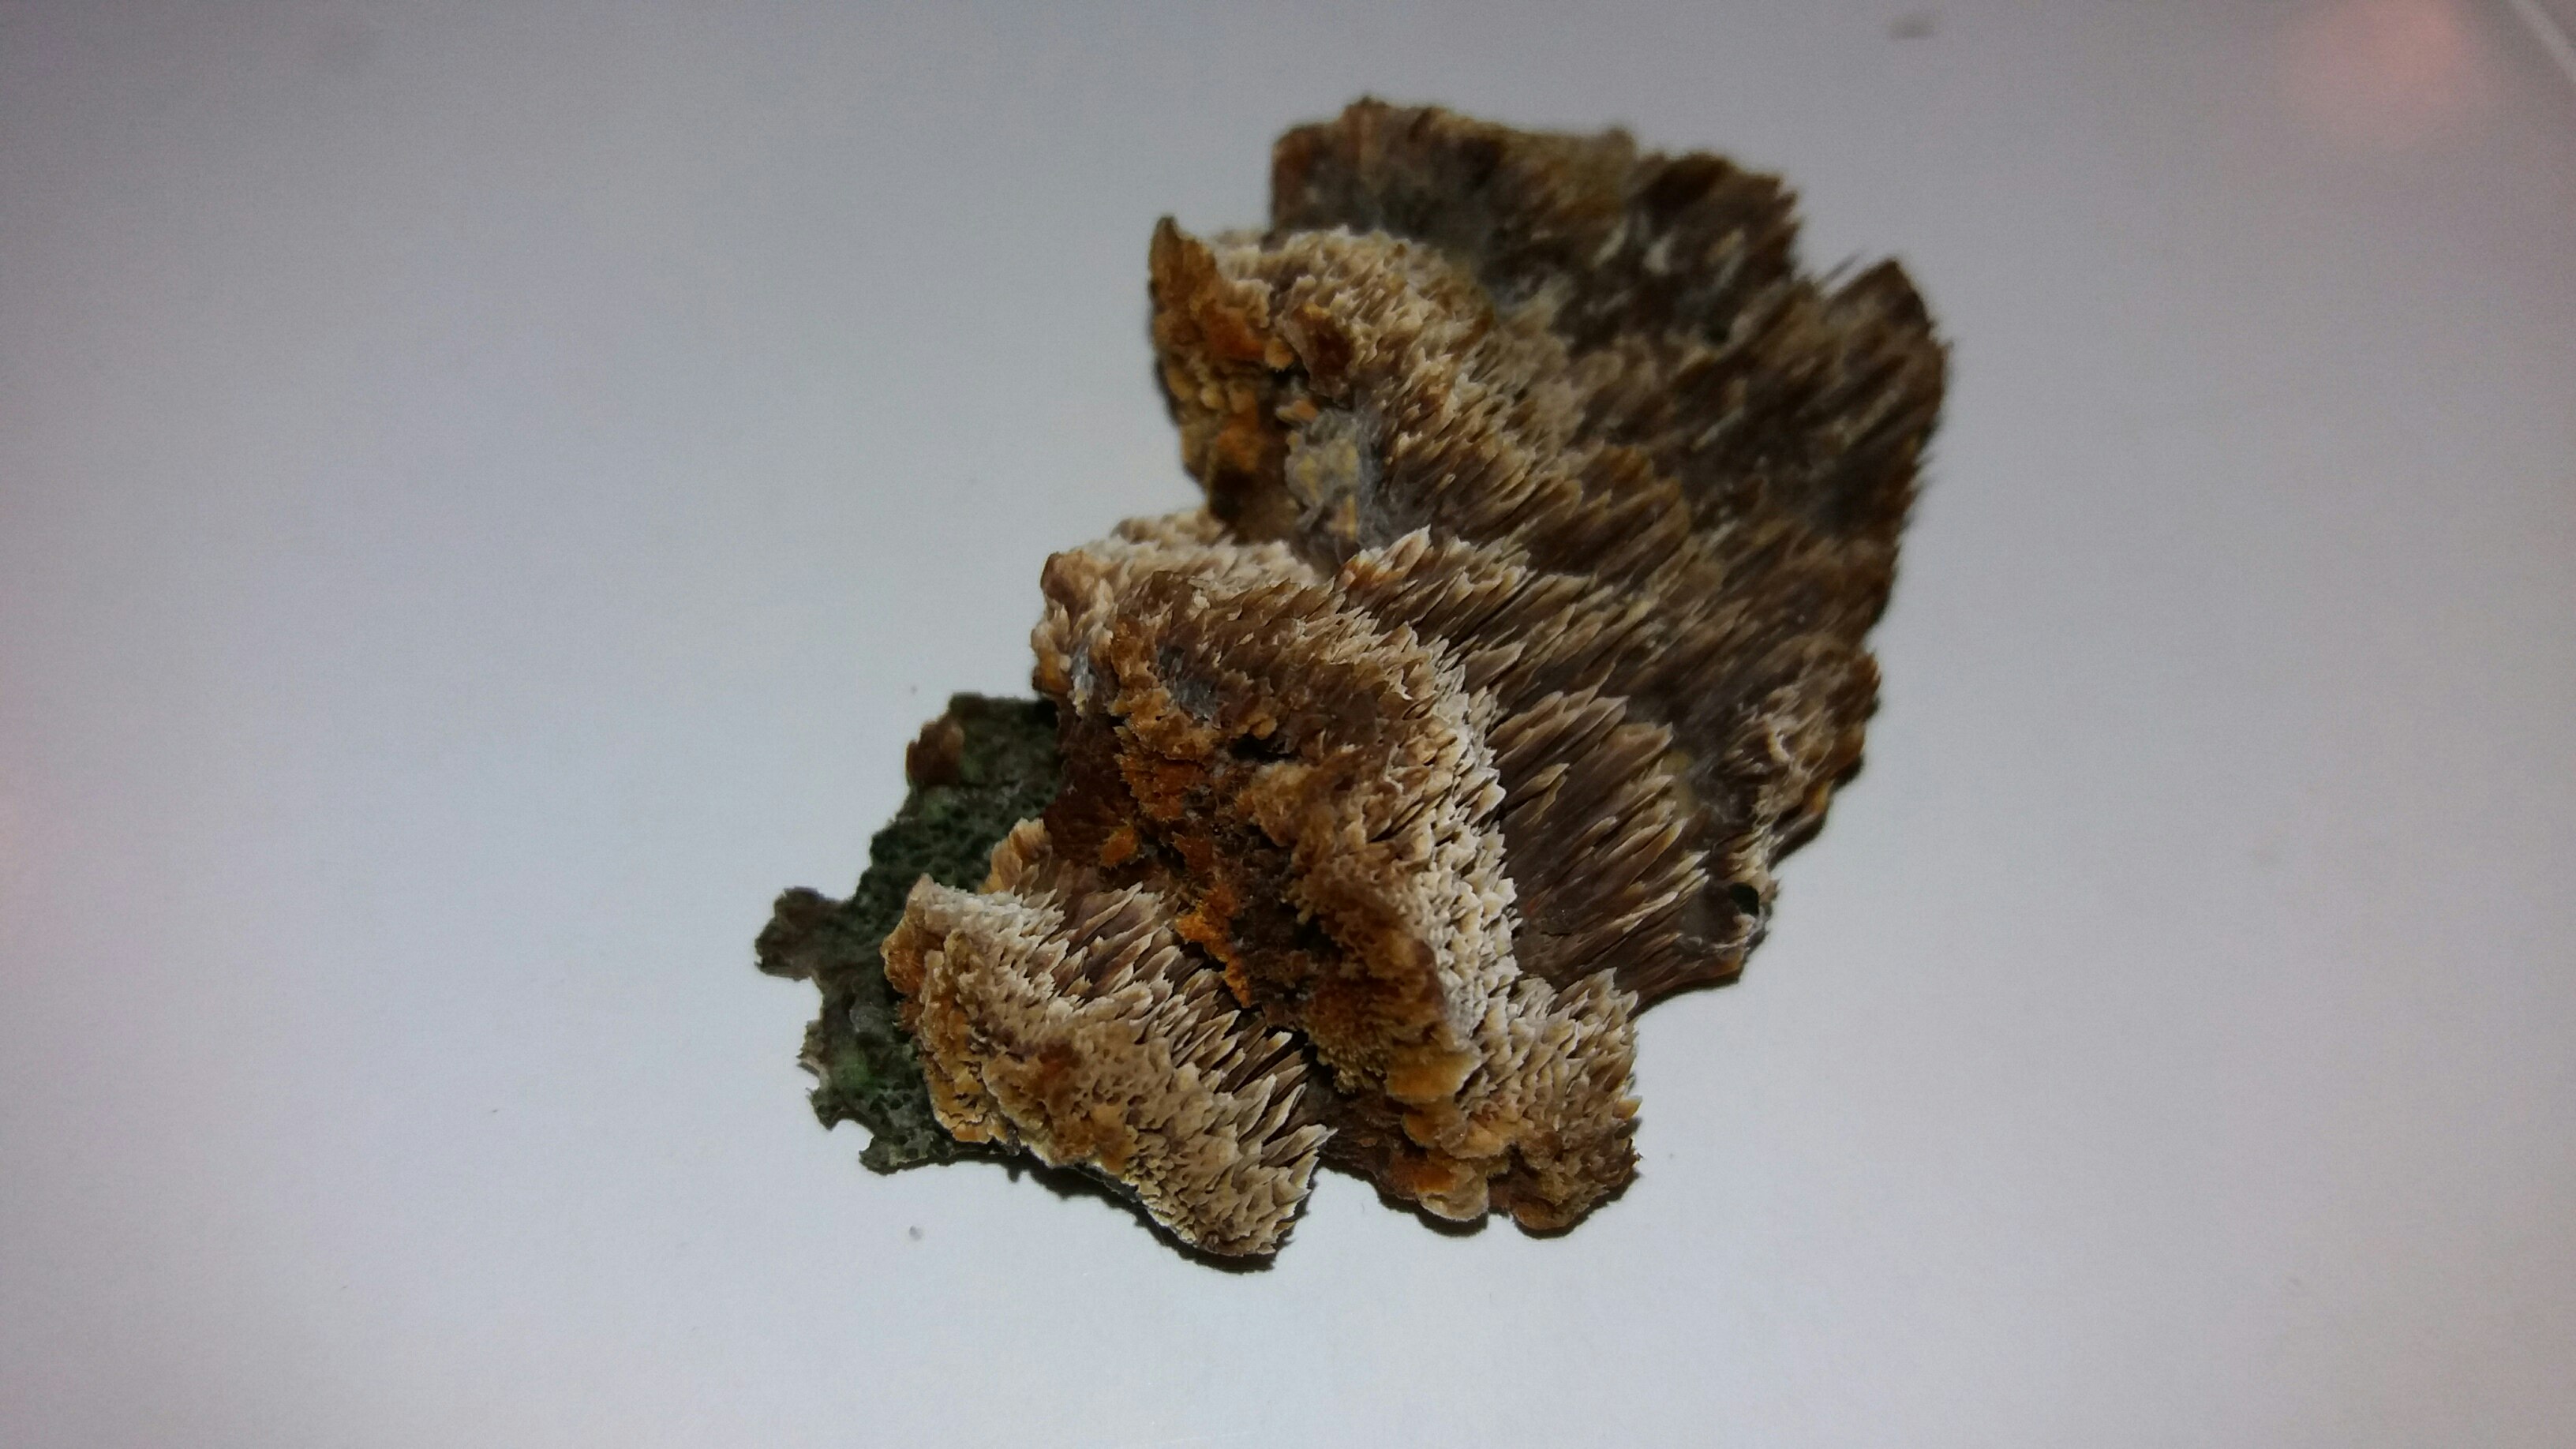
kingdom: Fungi
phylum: Basidiomycota
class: Agaricomycetes
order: Hymenochaetales
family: Hymenochaetaceae
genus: Mensularia
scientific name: Mensularia nodulosa
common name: bøge-spejlporesvamp
